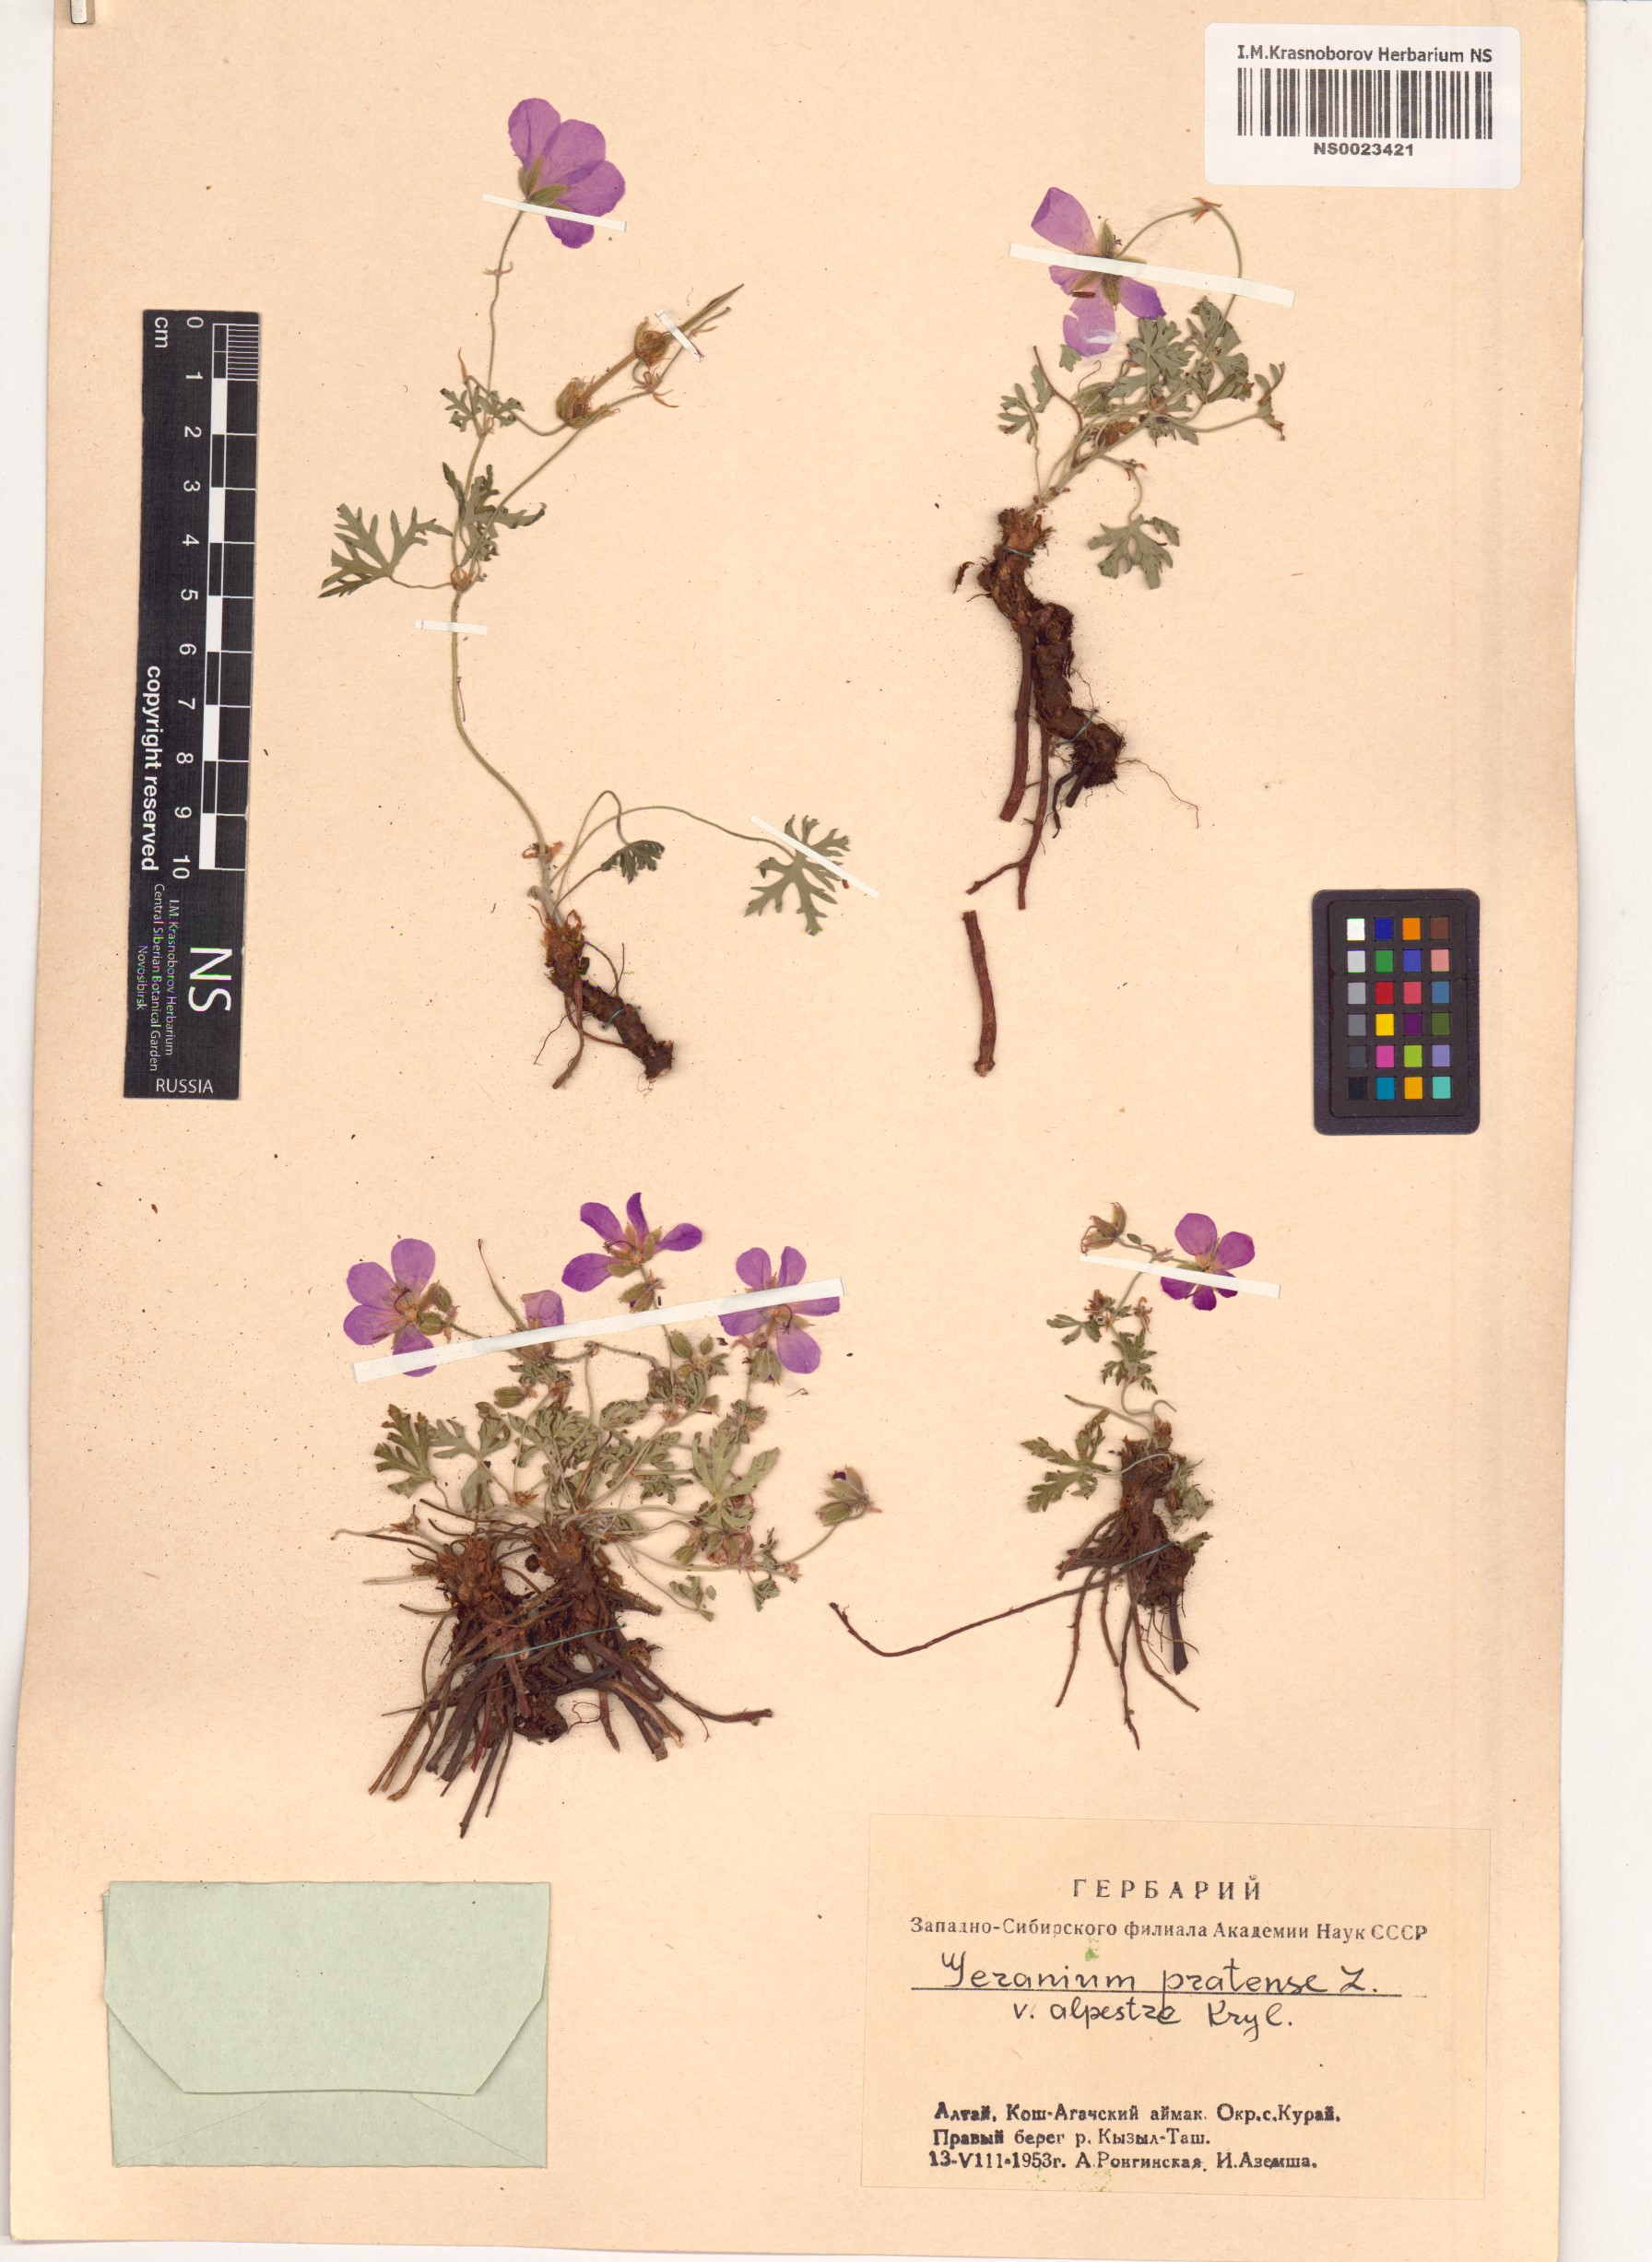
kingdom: Plantae
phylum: Tracheophyta
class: Magnoliopsida
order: Geraniales
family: Geraniaceae
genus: Geranium
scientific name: Geranium pratense
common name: Meadow crane's-bill
